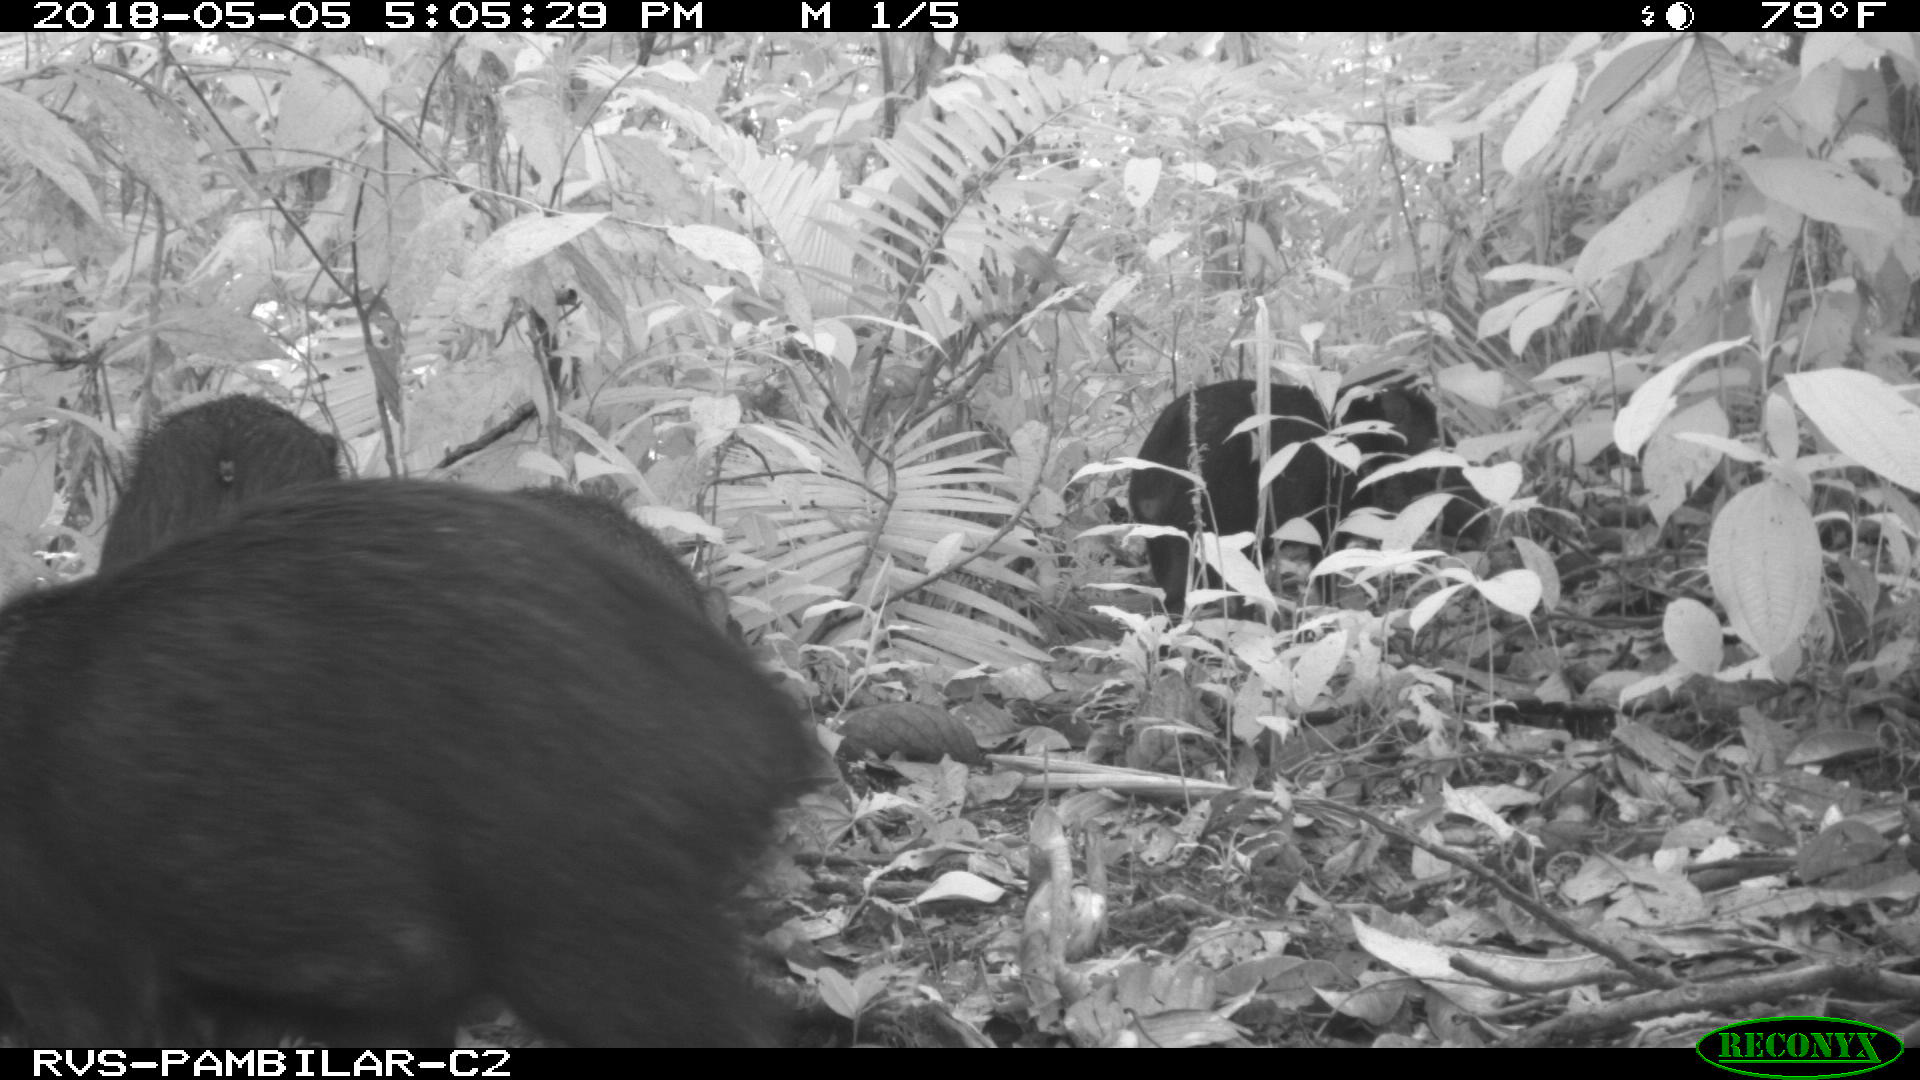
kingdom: Animalia
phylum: Chordata
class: Mammalia
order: Artiodactyla
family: Tayassuidae
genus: Pecari
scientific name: Pecari tajacu
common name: Collared peccary
